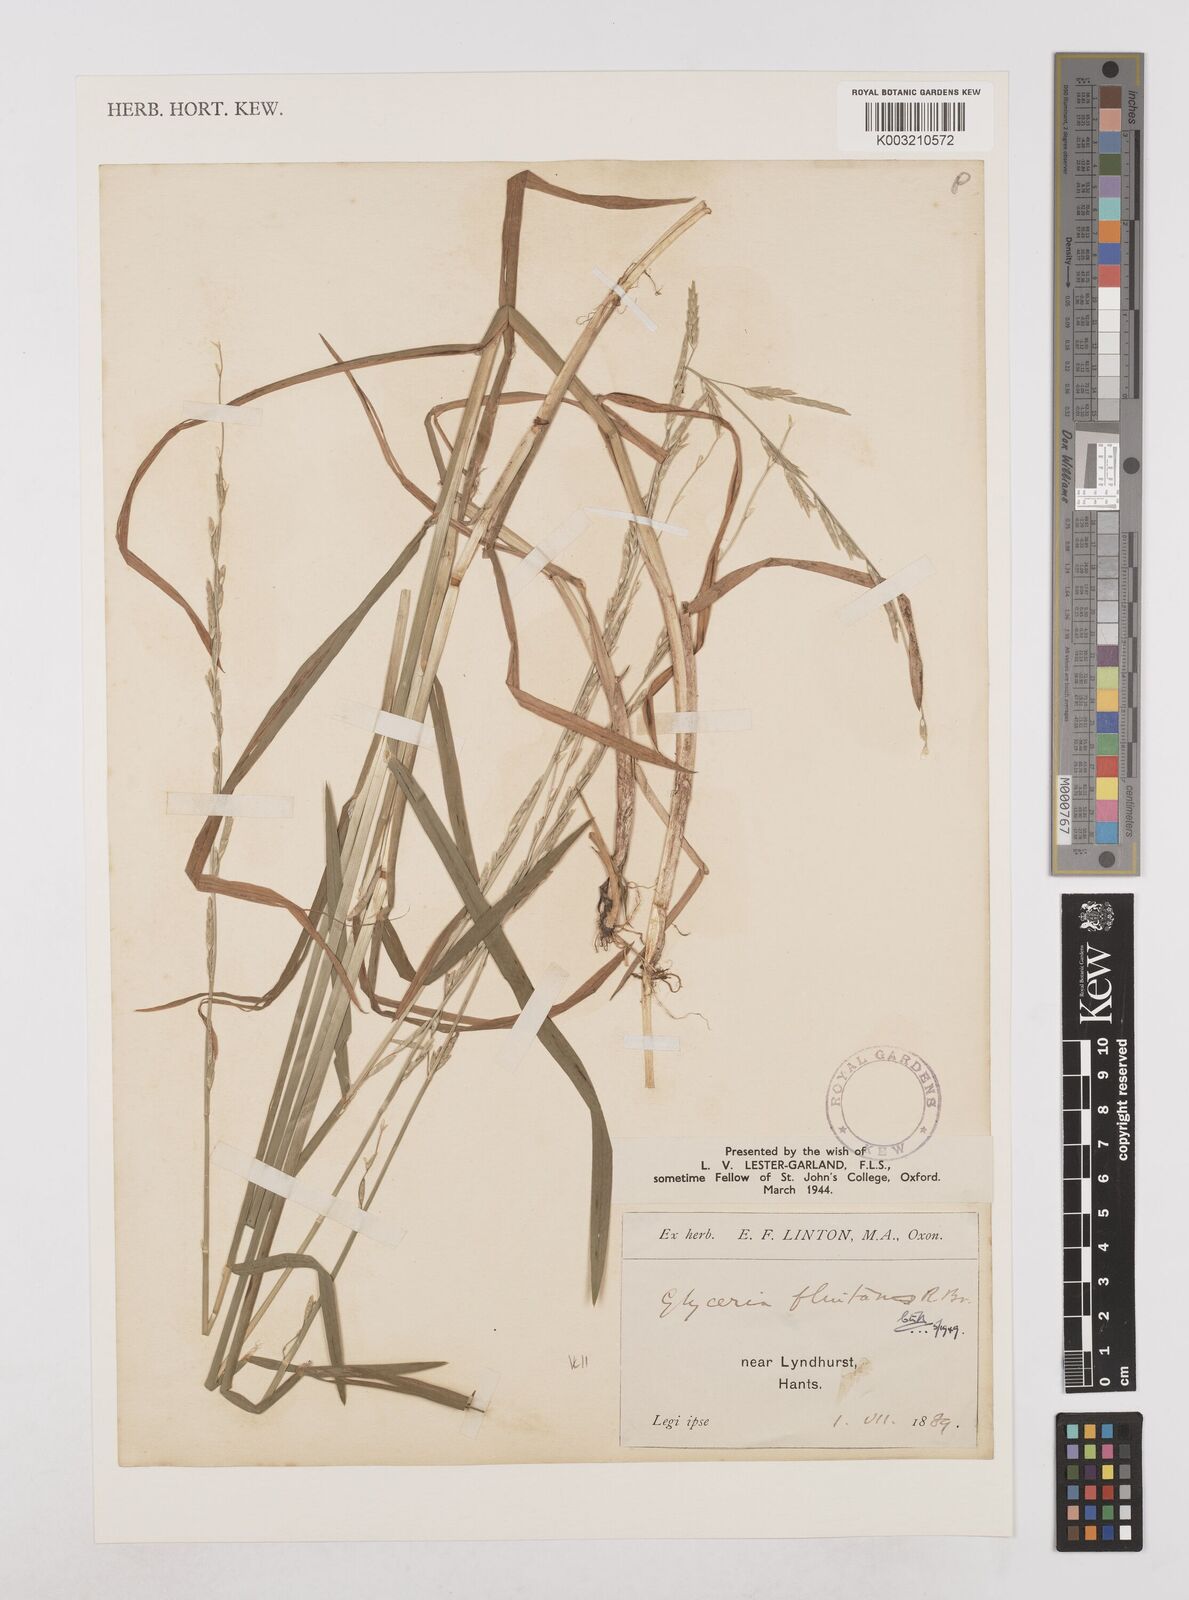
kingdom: Plantae
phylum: Tracheophyta
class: Liliopsida
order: Poales
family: Poaceae
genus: Glyceria
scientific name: Glyceria fluitans
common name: Floating sweet-grass
